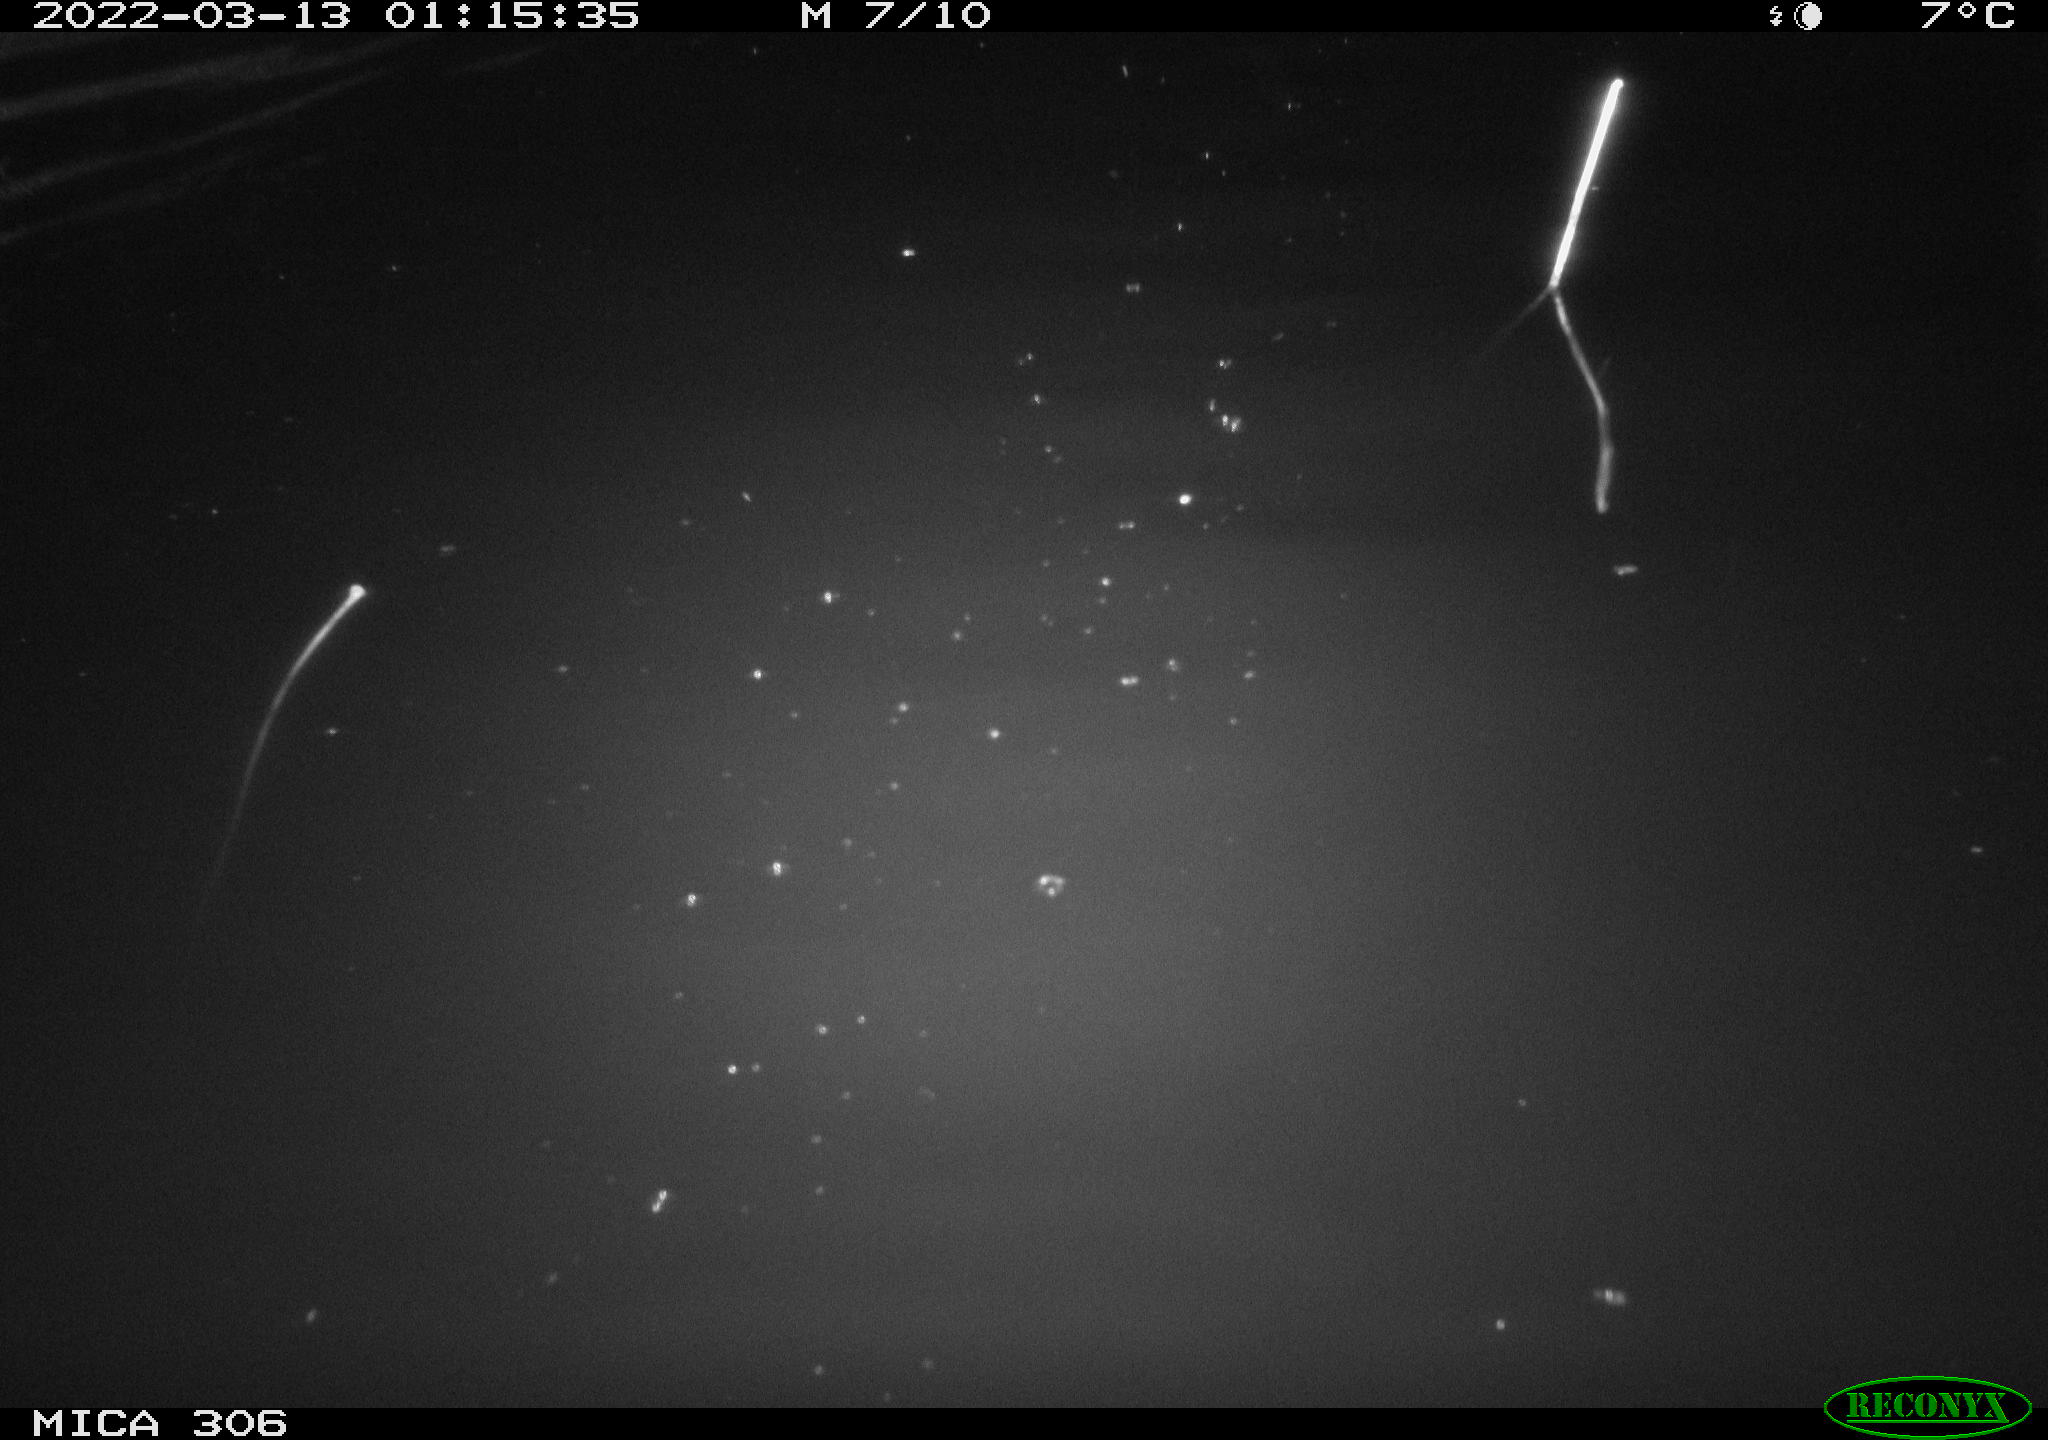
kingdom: Animalia
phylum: Chordata
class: Mammalia
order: Rodentia
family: Cricetidae
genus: Ondatra
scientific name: Ondatra zibethicus
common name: Muskrat
